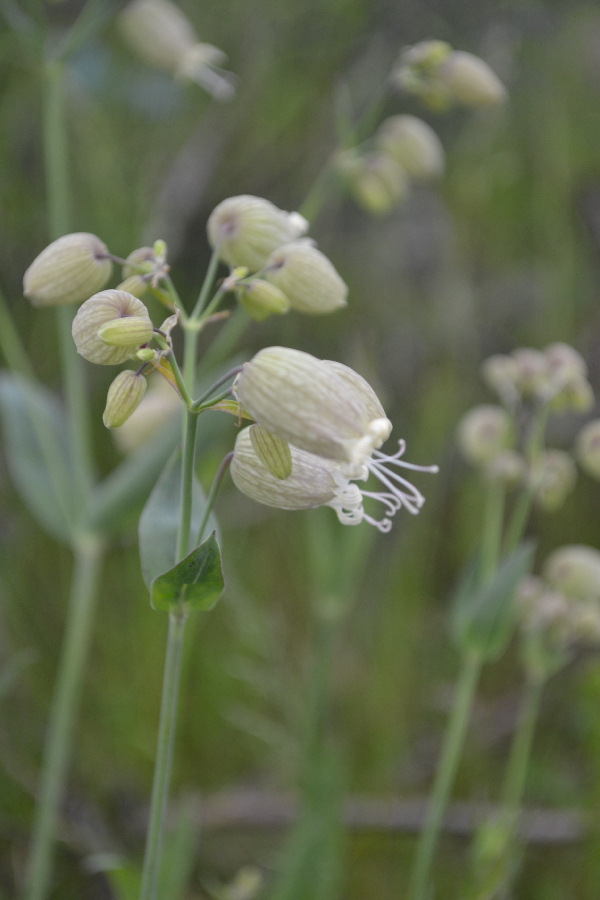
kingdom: Plantae
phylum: Tracheophyta
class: Magnoliopsida
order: Caryophyllales
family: Caryophyllaceae
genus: Silene
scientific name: Silene behen
